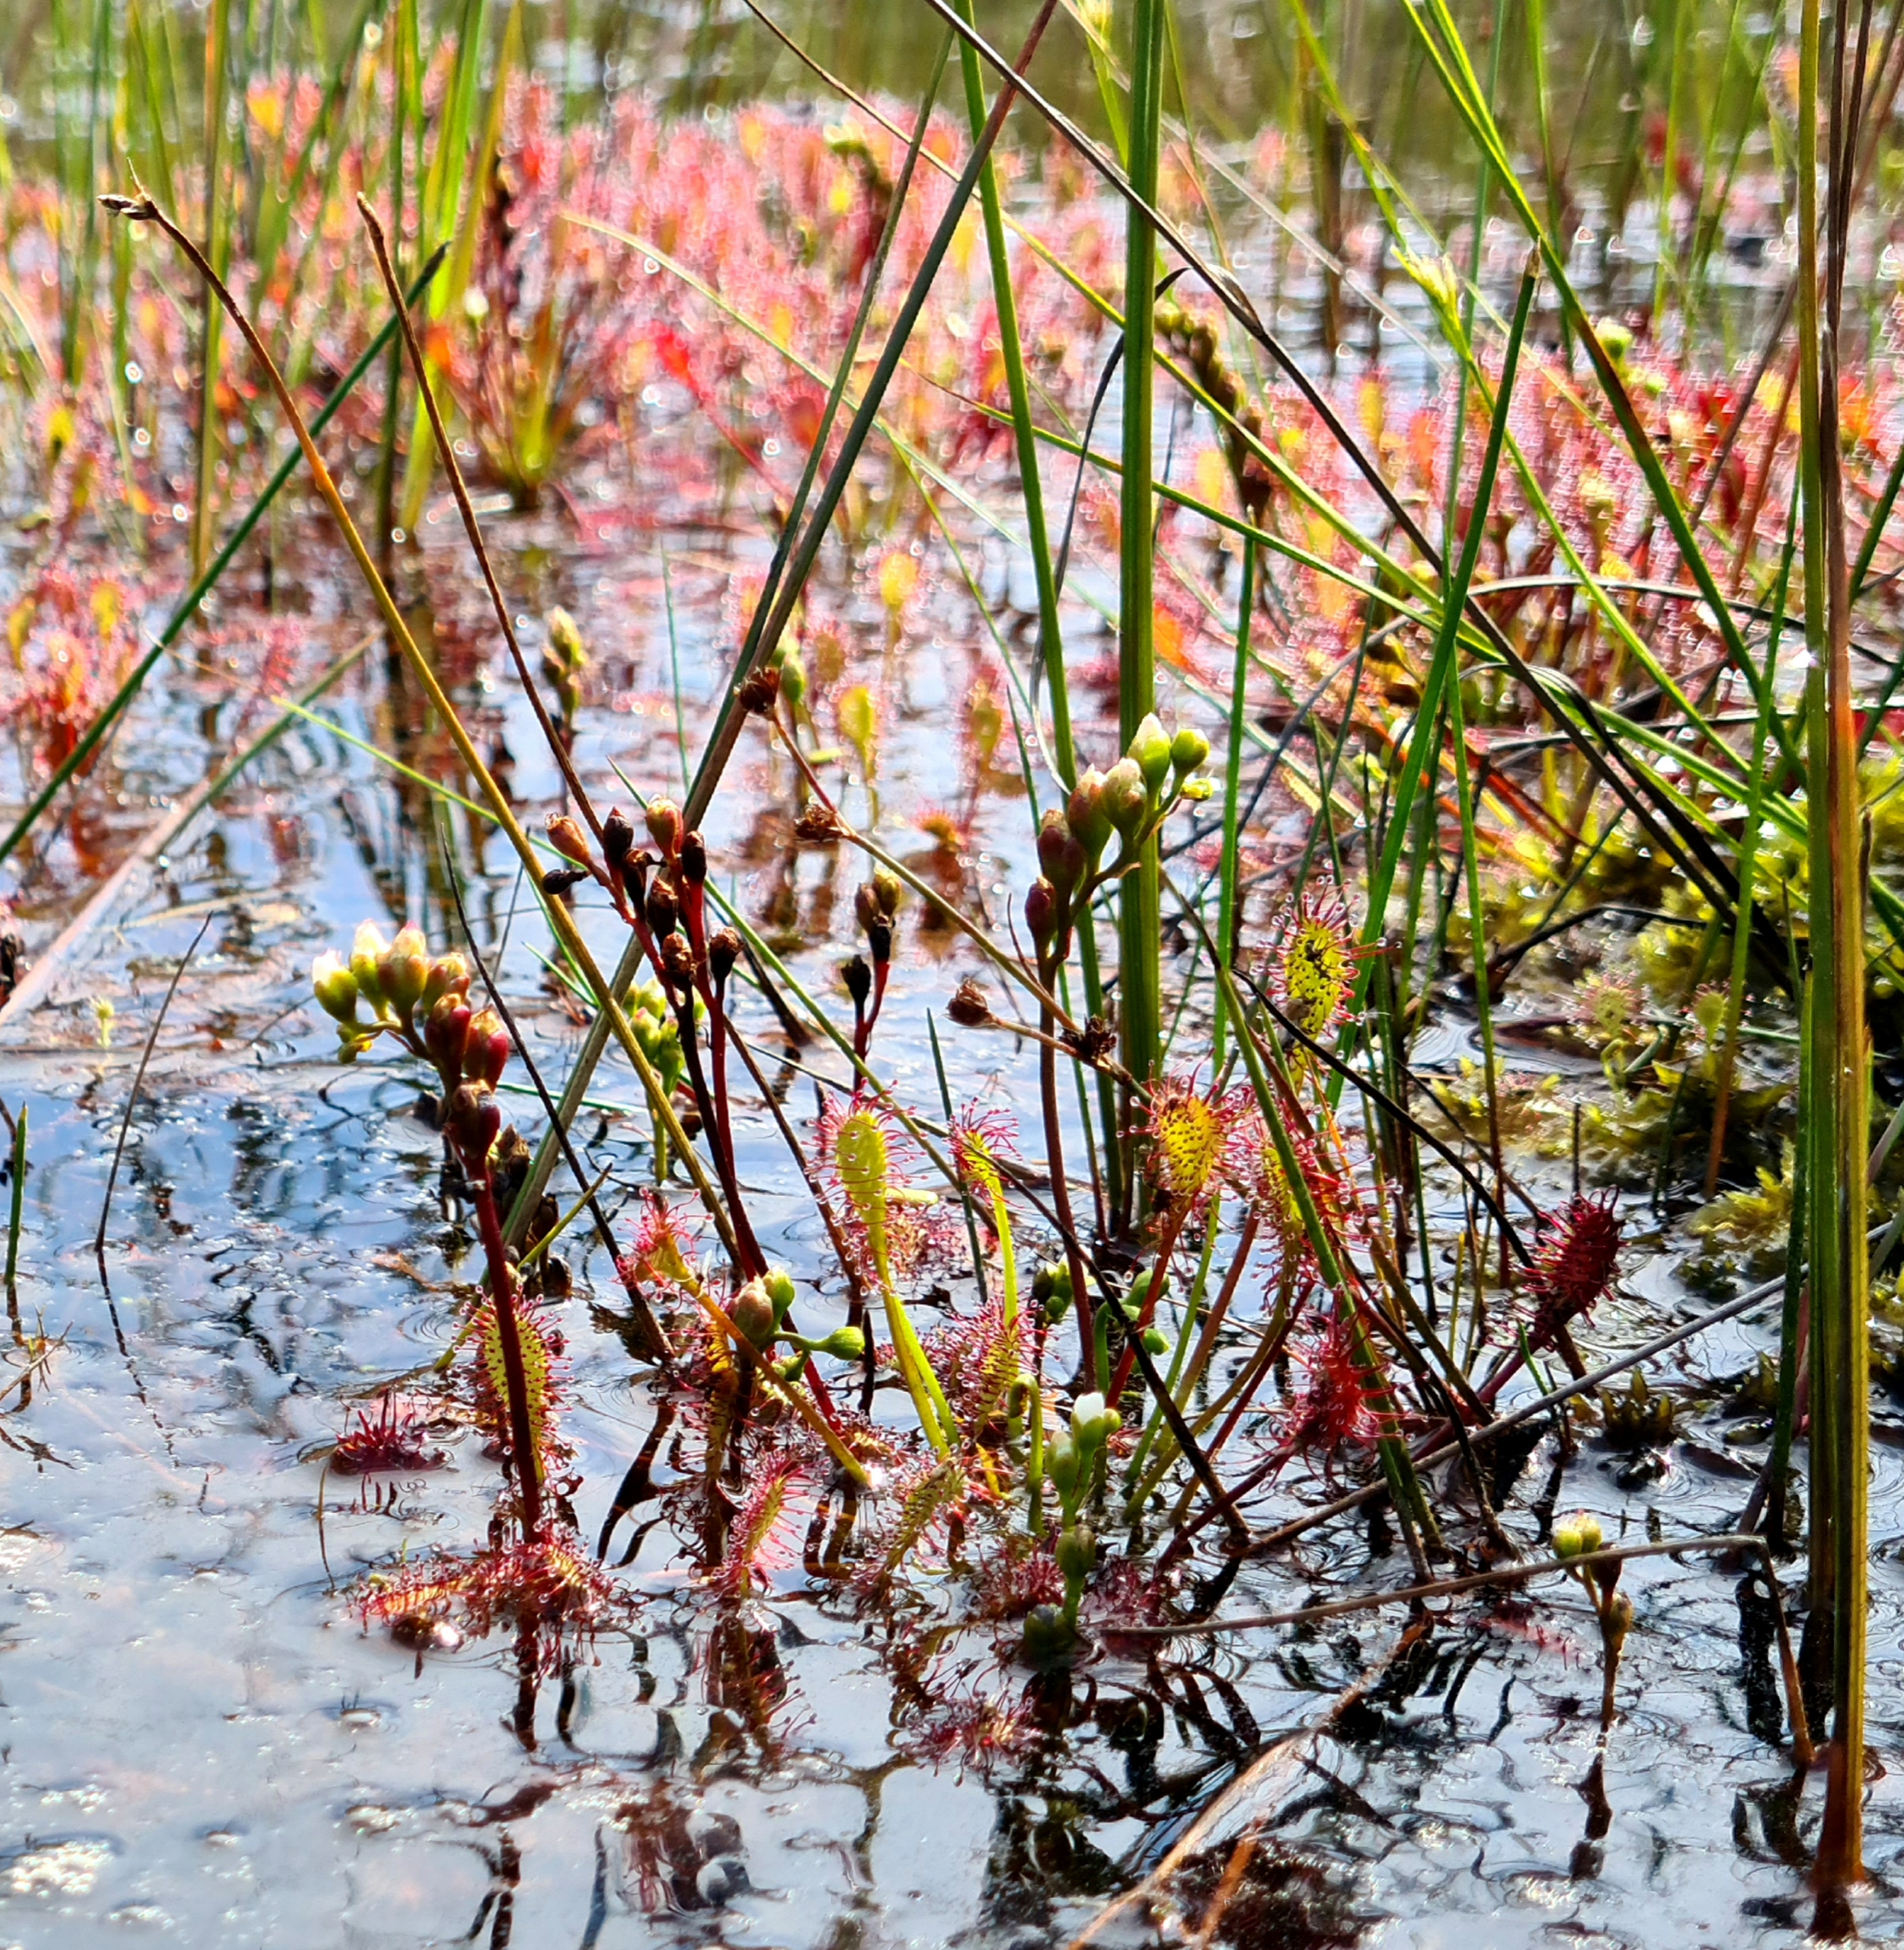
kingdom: Plantae
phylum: Tracheophyta
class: Magnoliopsida
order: Caryophyllales
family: Droseraceae
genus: Drosera
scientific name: Drosera intermedia
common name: Liden soldug
